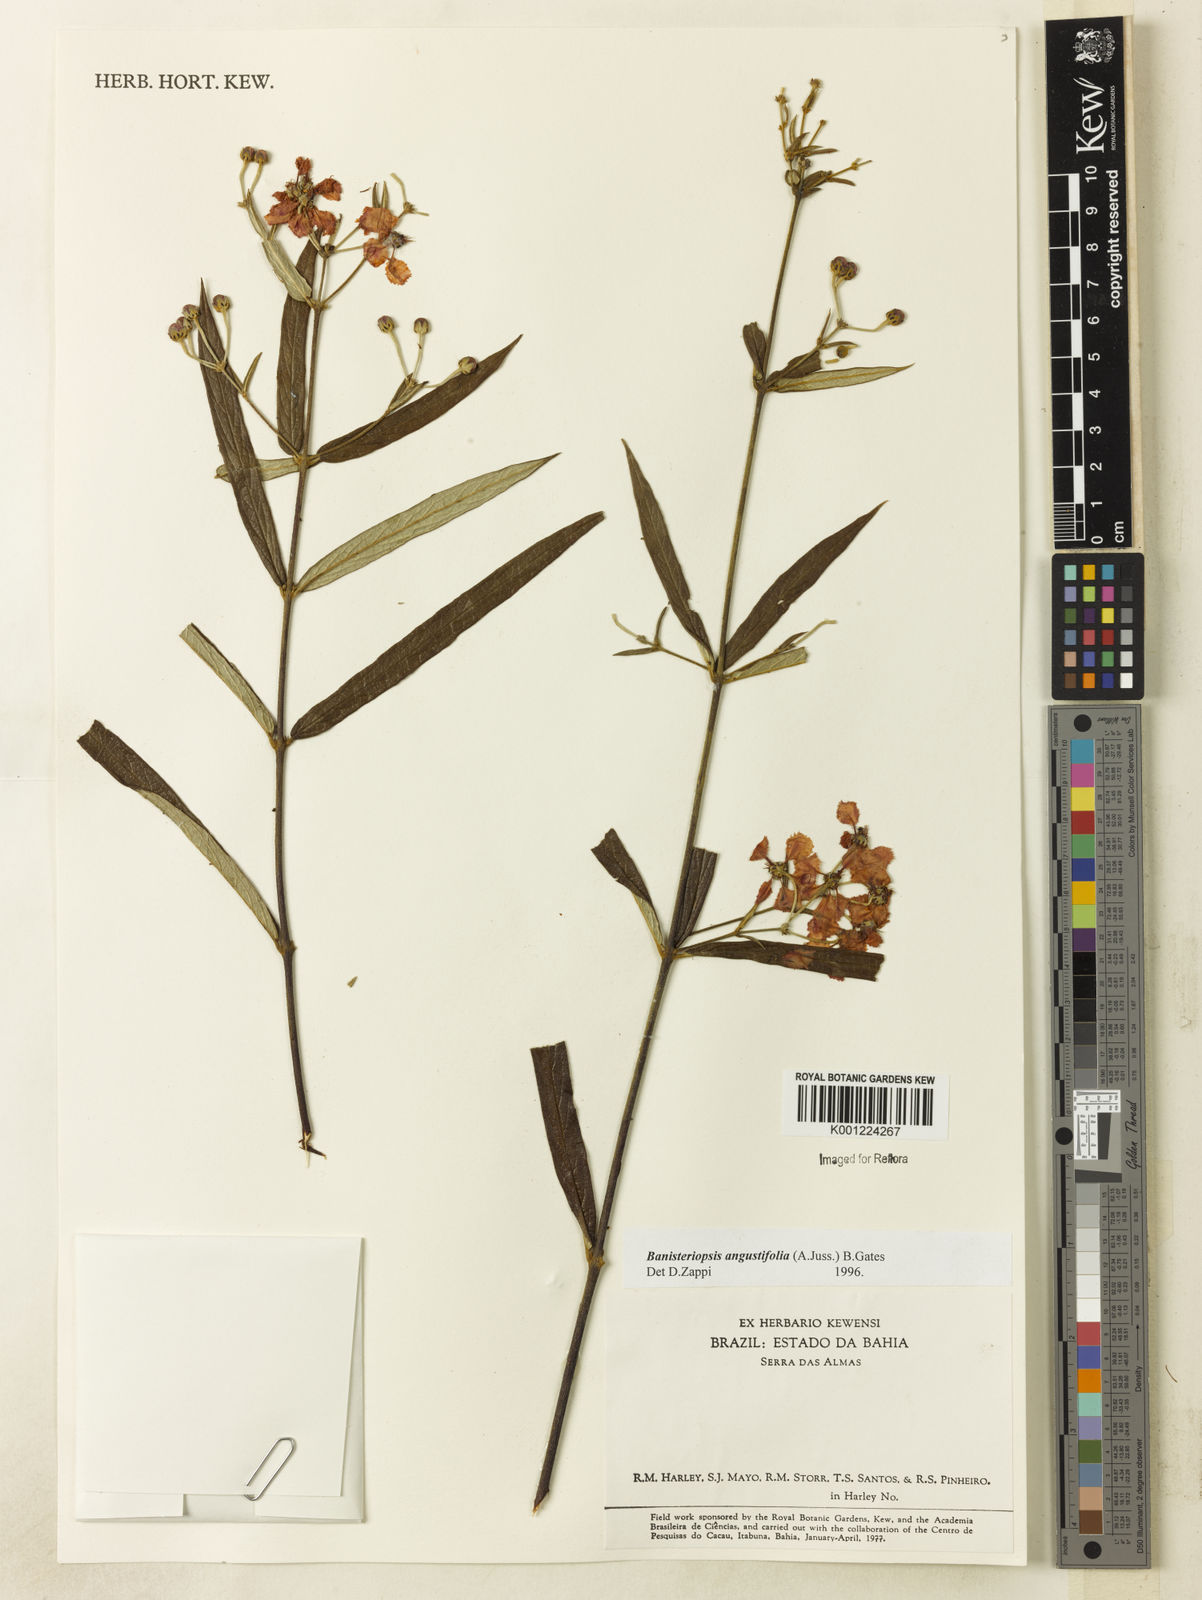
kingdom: Plantae
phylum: Tracheophyta
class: Magnoliopsida
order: Malpighiales
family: Malpighiaceae
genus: Banisteriopsis
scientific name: Banisteriopsis angustifolia
